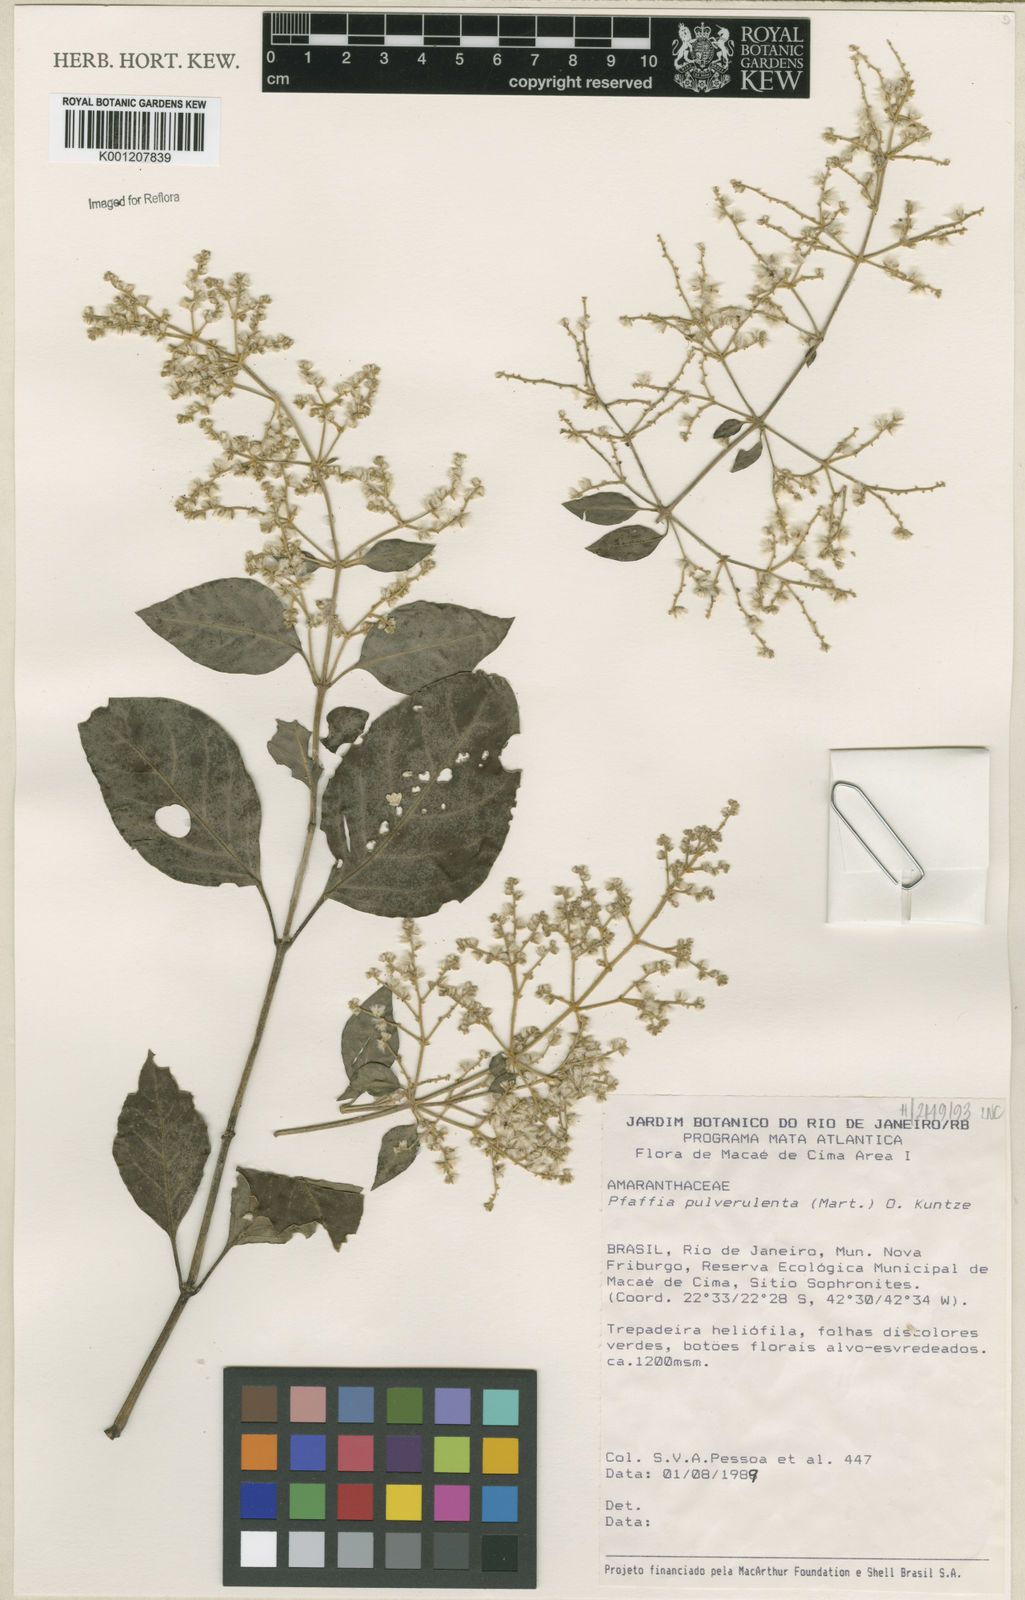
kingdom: Plantae
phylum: Tracheophyta
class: Magnoliopsida
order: Caryophyllales
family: Amaranthaceae
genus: Hebanthe
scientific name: Hebanthe pulverulenta
